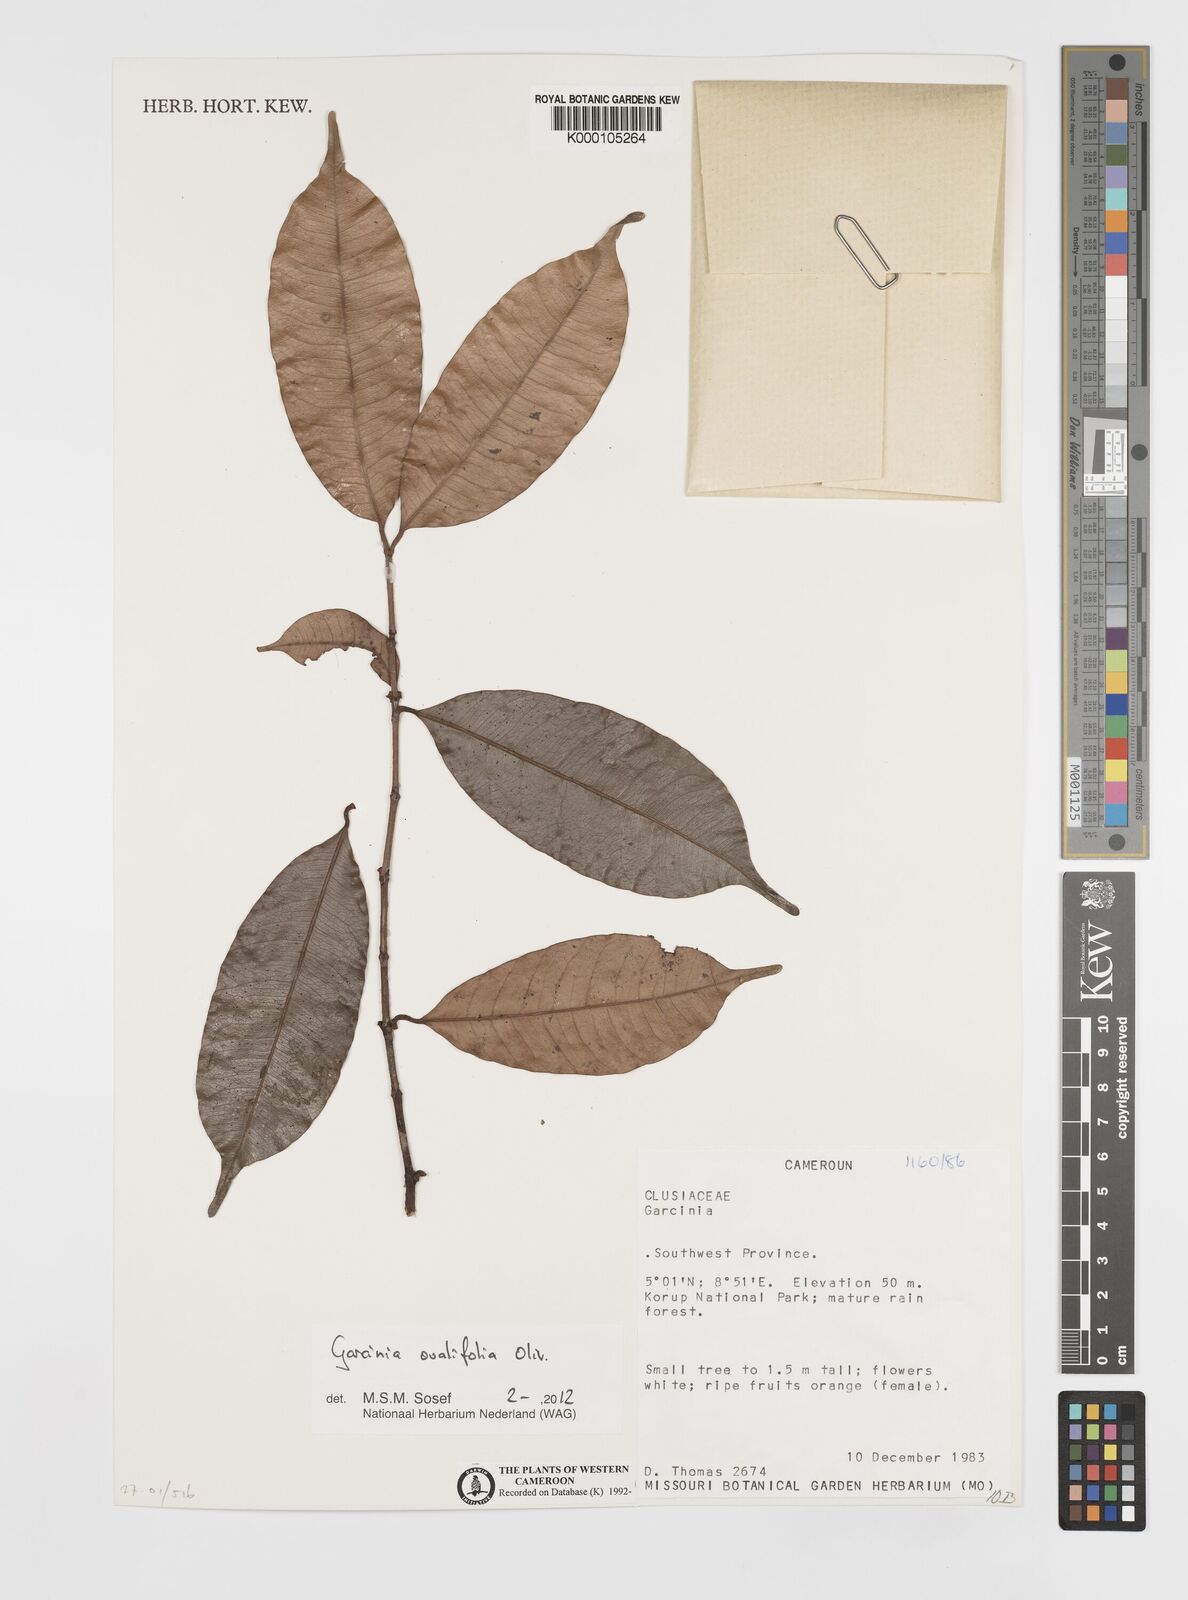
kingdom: Plantae
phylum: Tracheophyta
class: Magnoliopsida
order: Malpighiales
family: Clusiaceae
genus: Garcinia
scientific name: Garcinia
